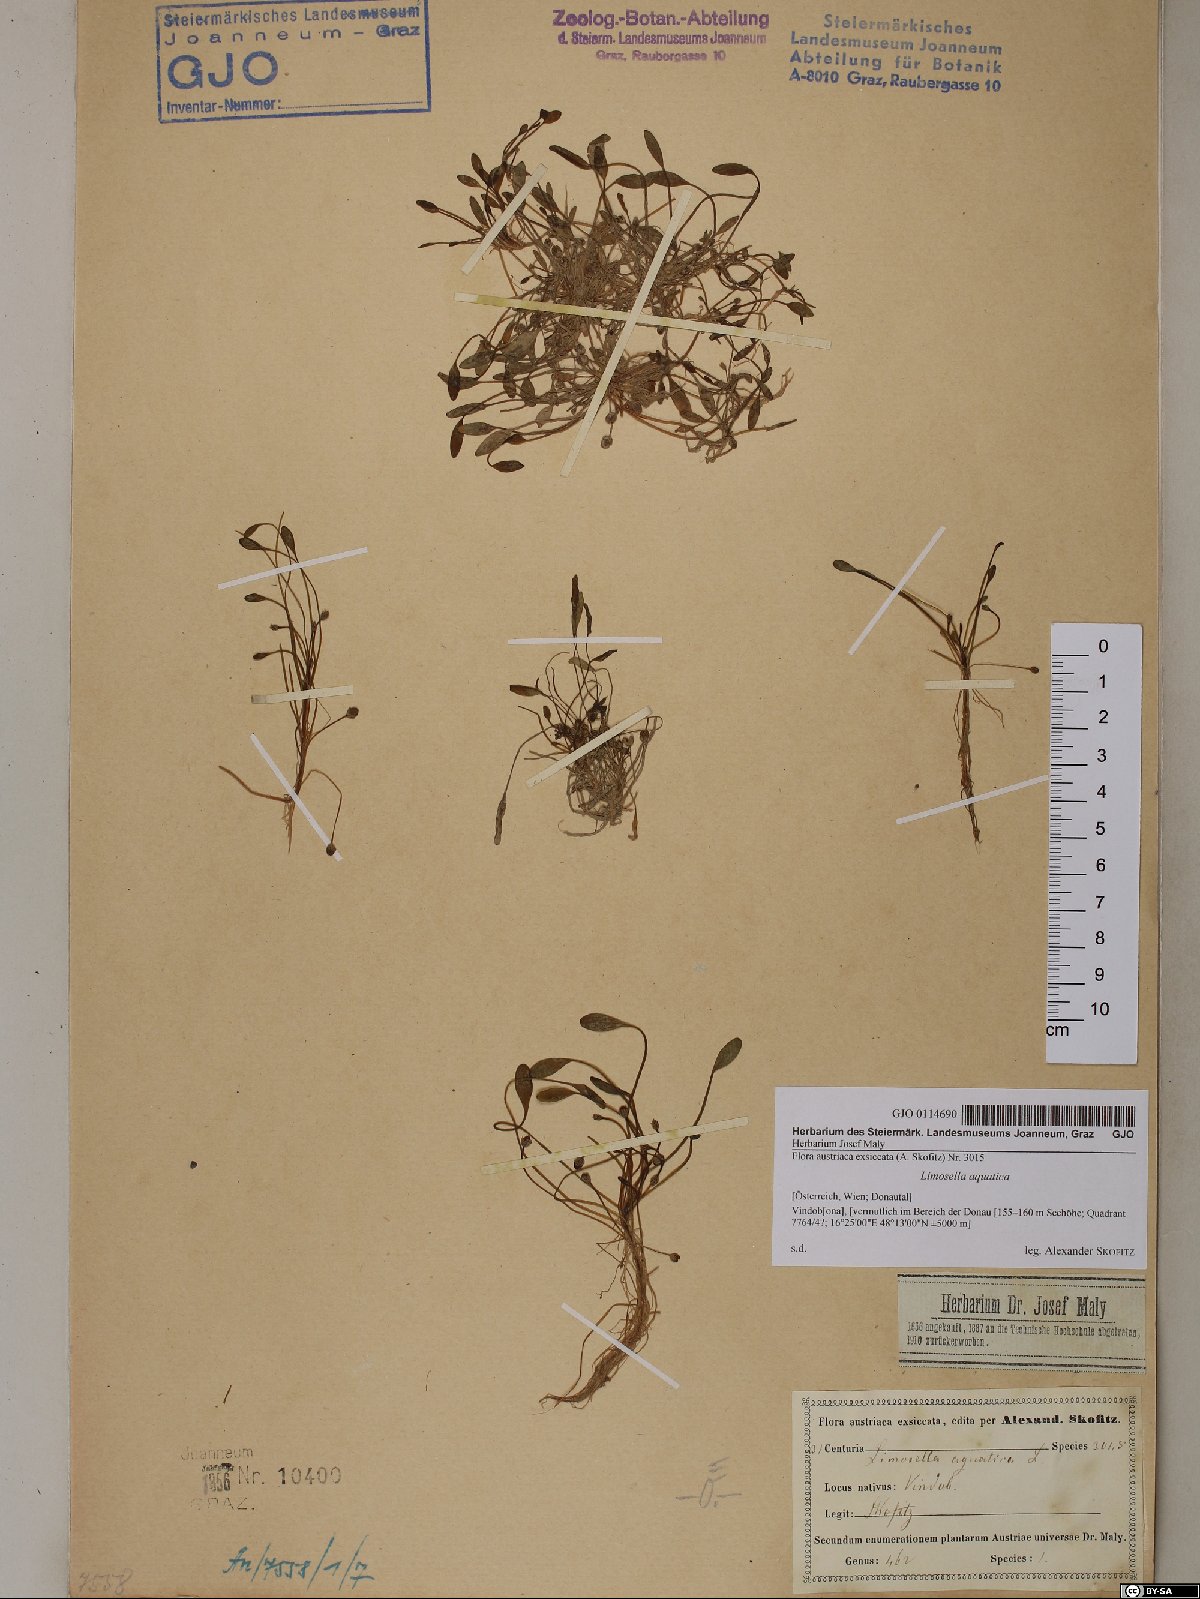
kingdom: Plantae
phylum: Tracheophyta
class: Magnoliopsida
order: Lamiales
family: Scrophulariaceae
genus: Limosella
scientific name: Limosella aquatica
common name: Mudwort
